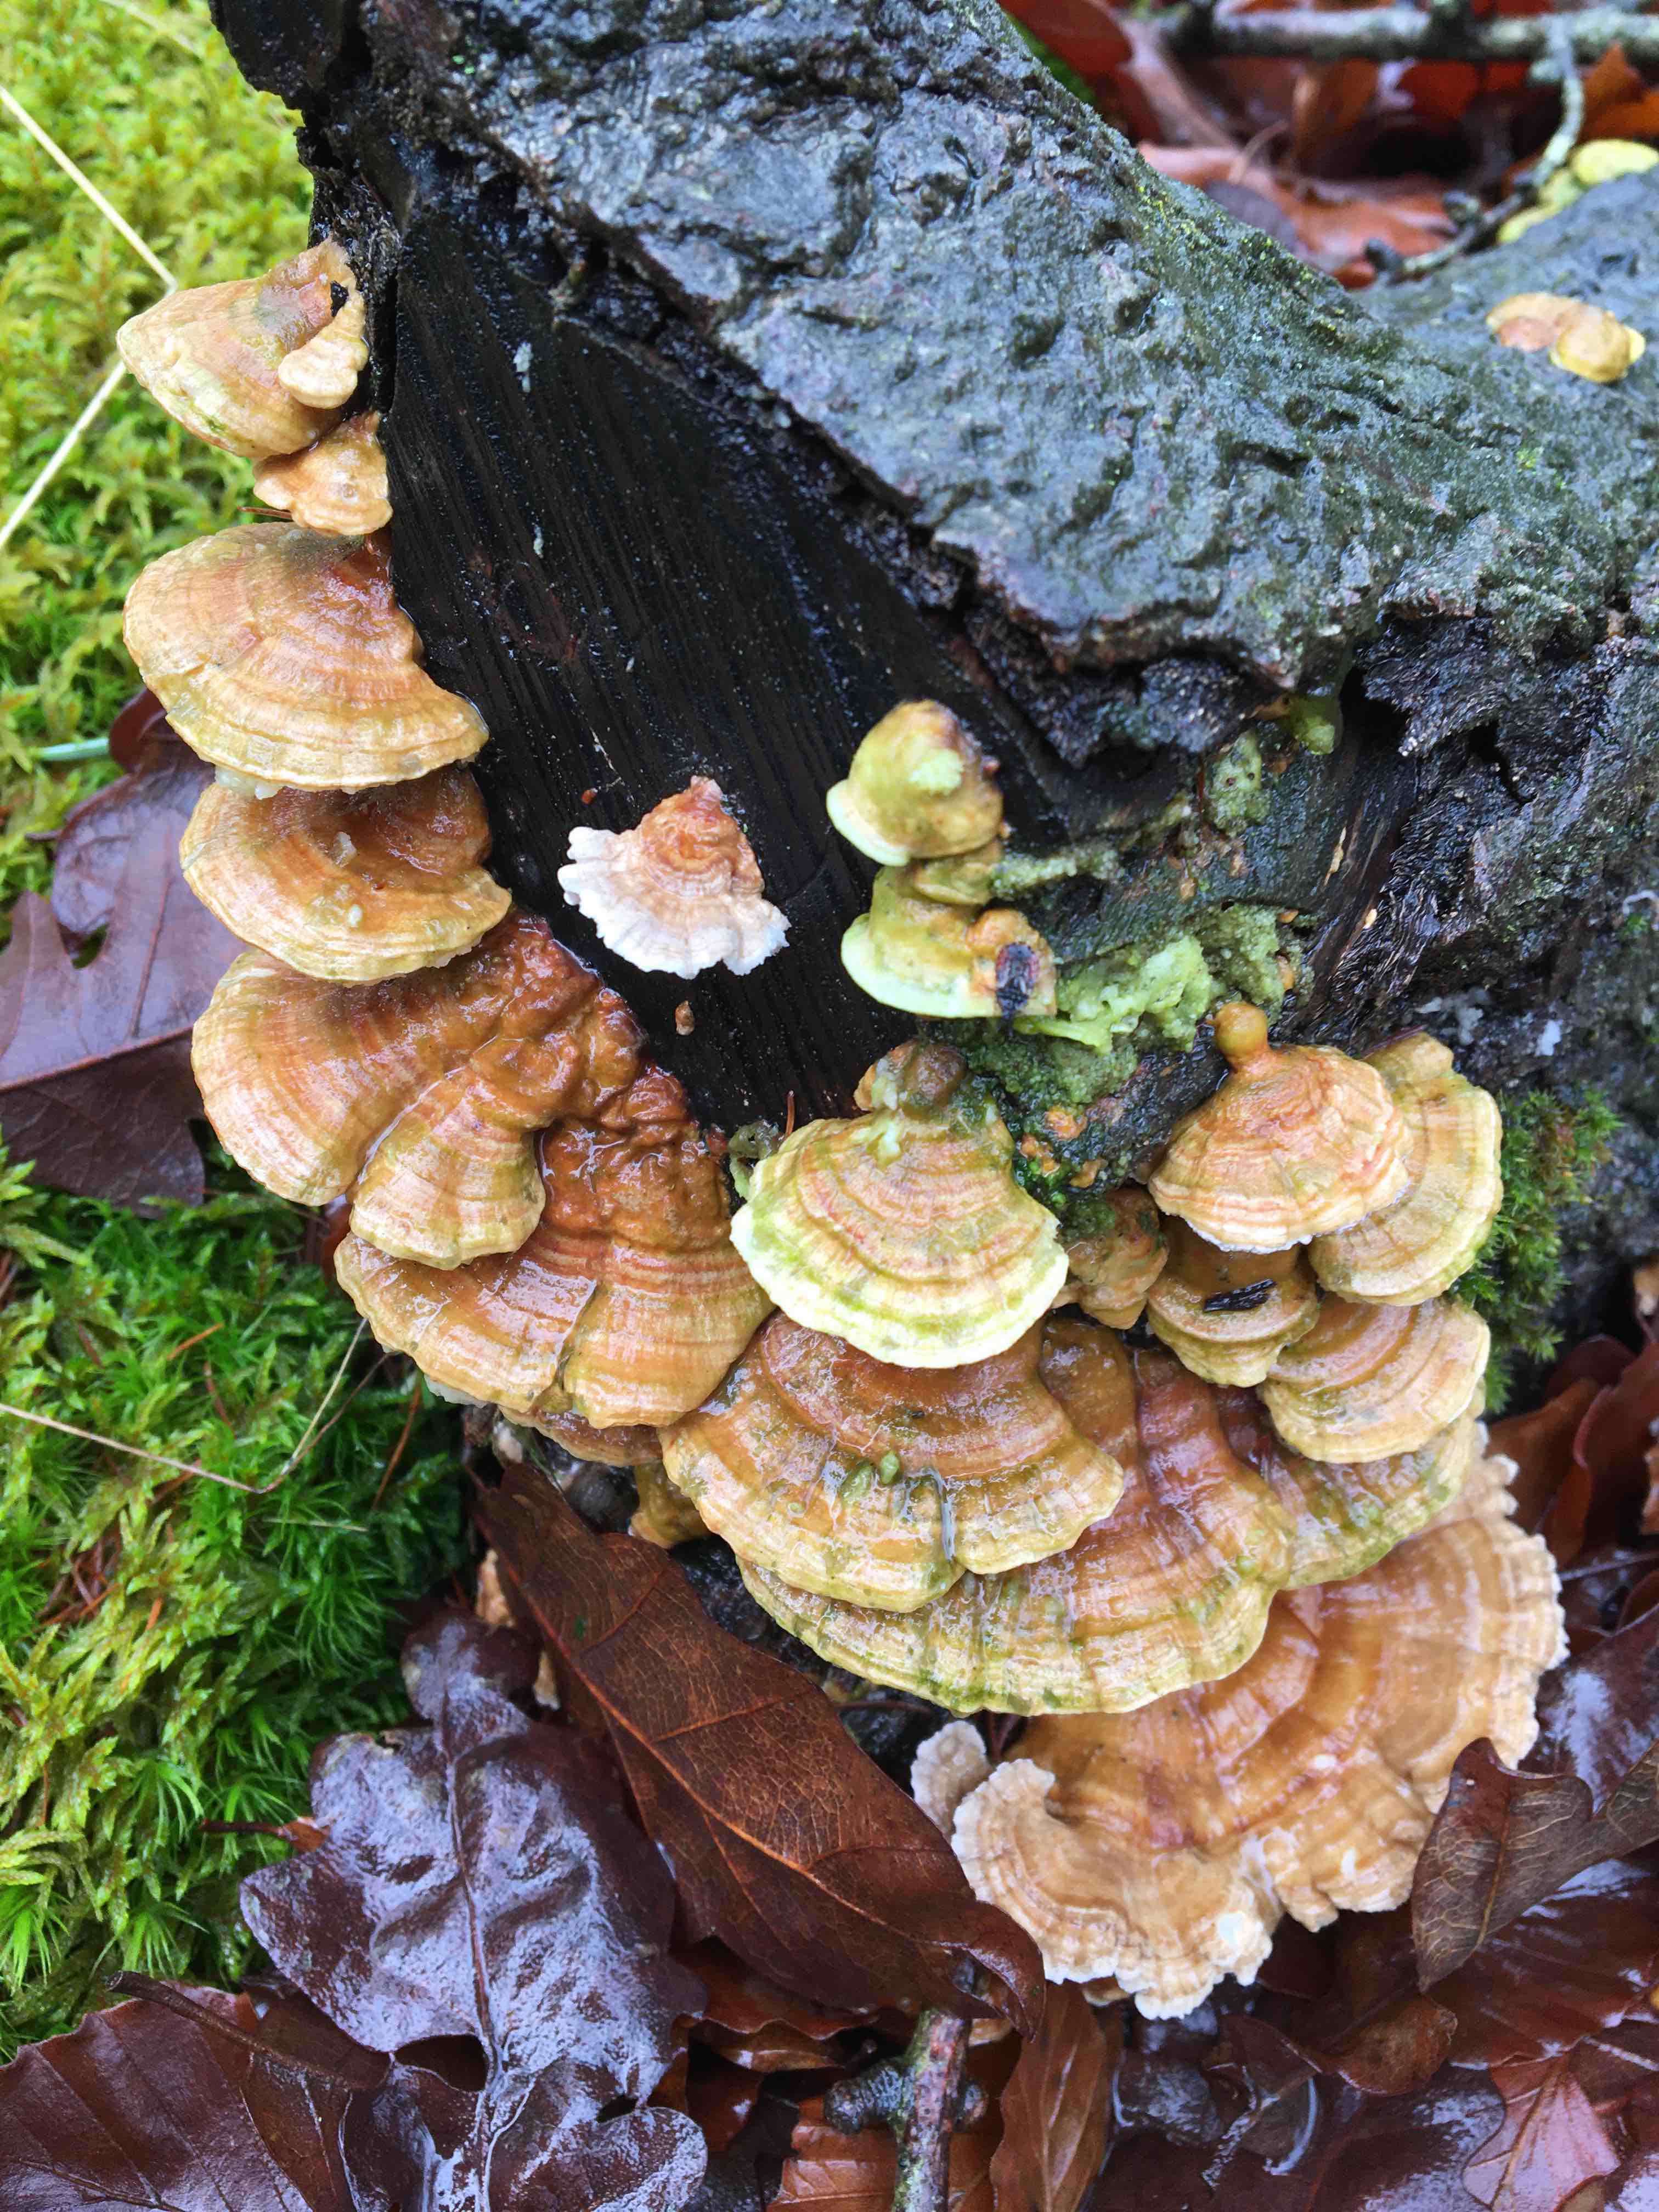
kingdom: Fungi
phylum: Basidiomycota
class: Agaricomycetes
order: Polyporales
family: Polyporaceae
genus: Trametes
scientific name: Trametes
